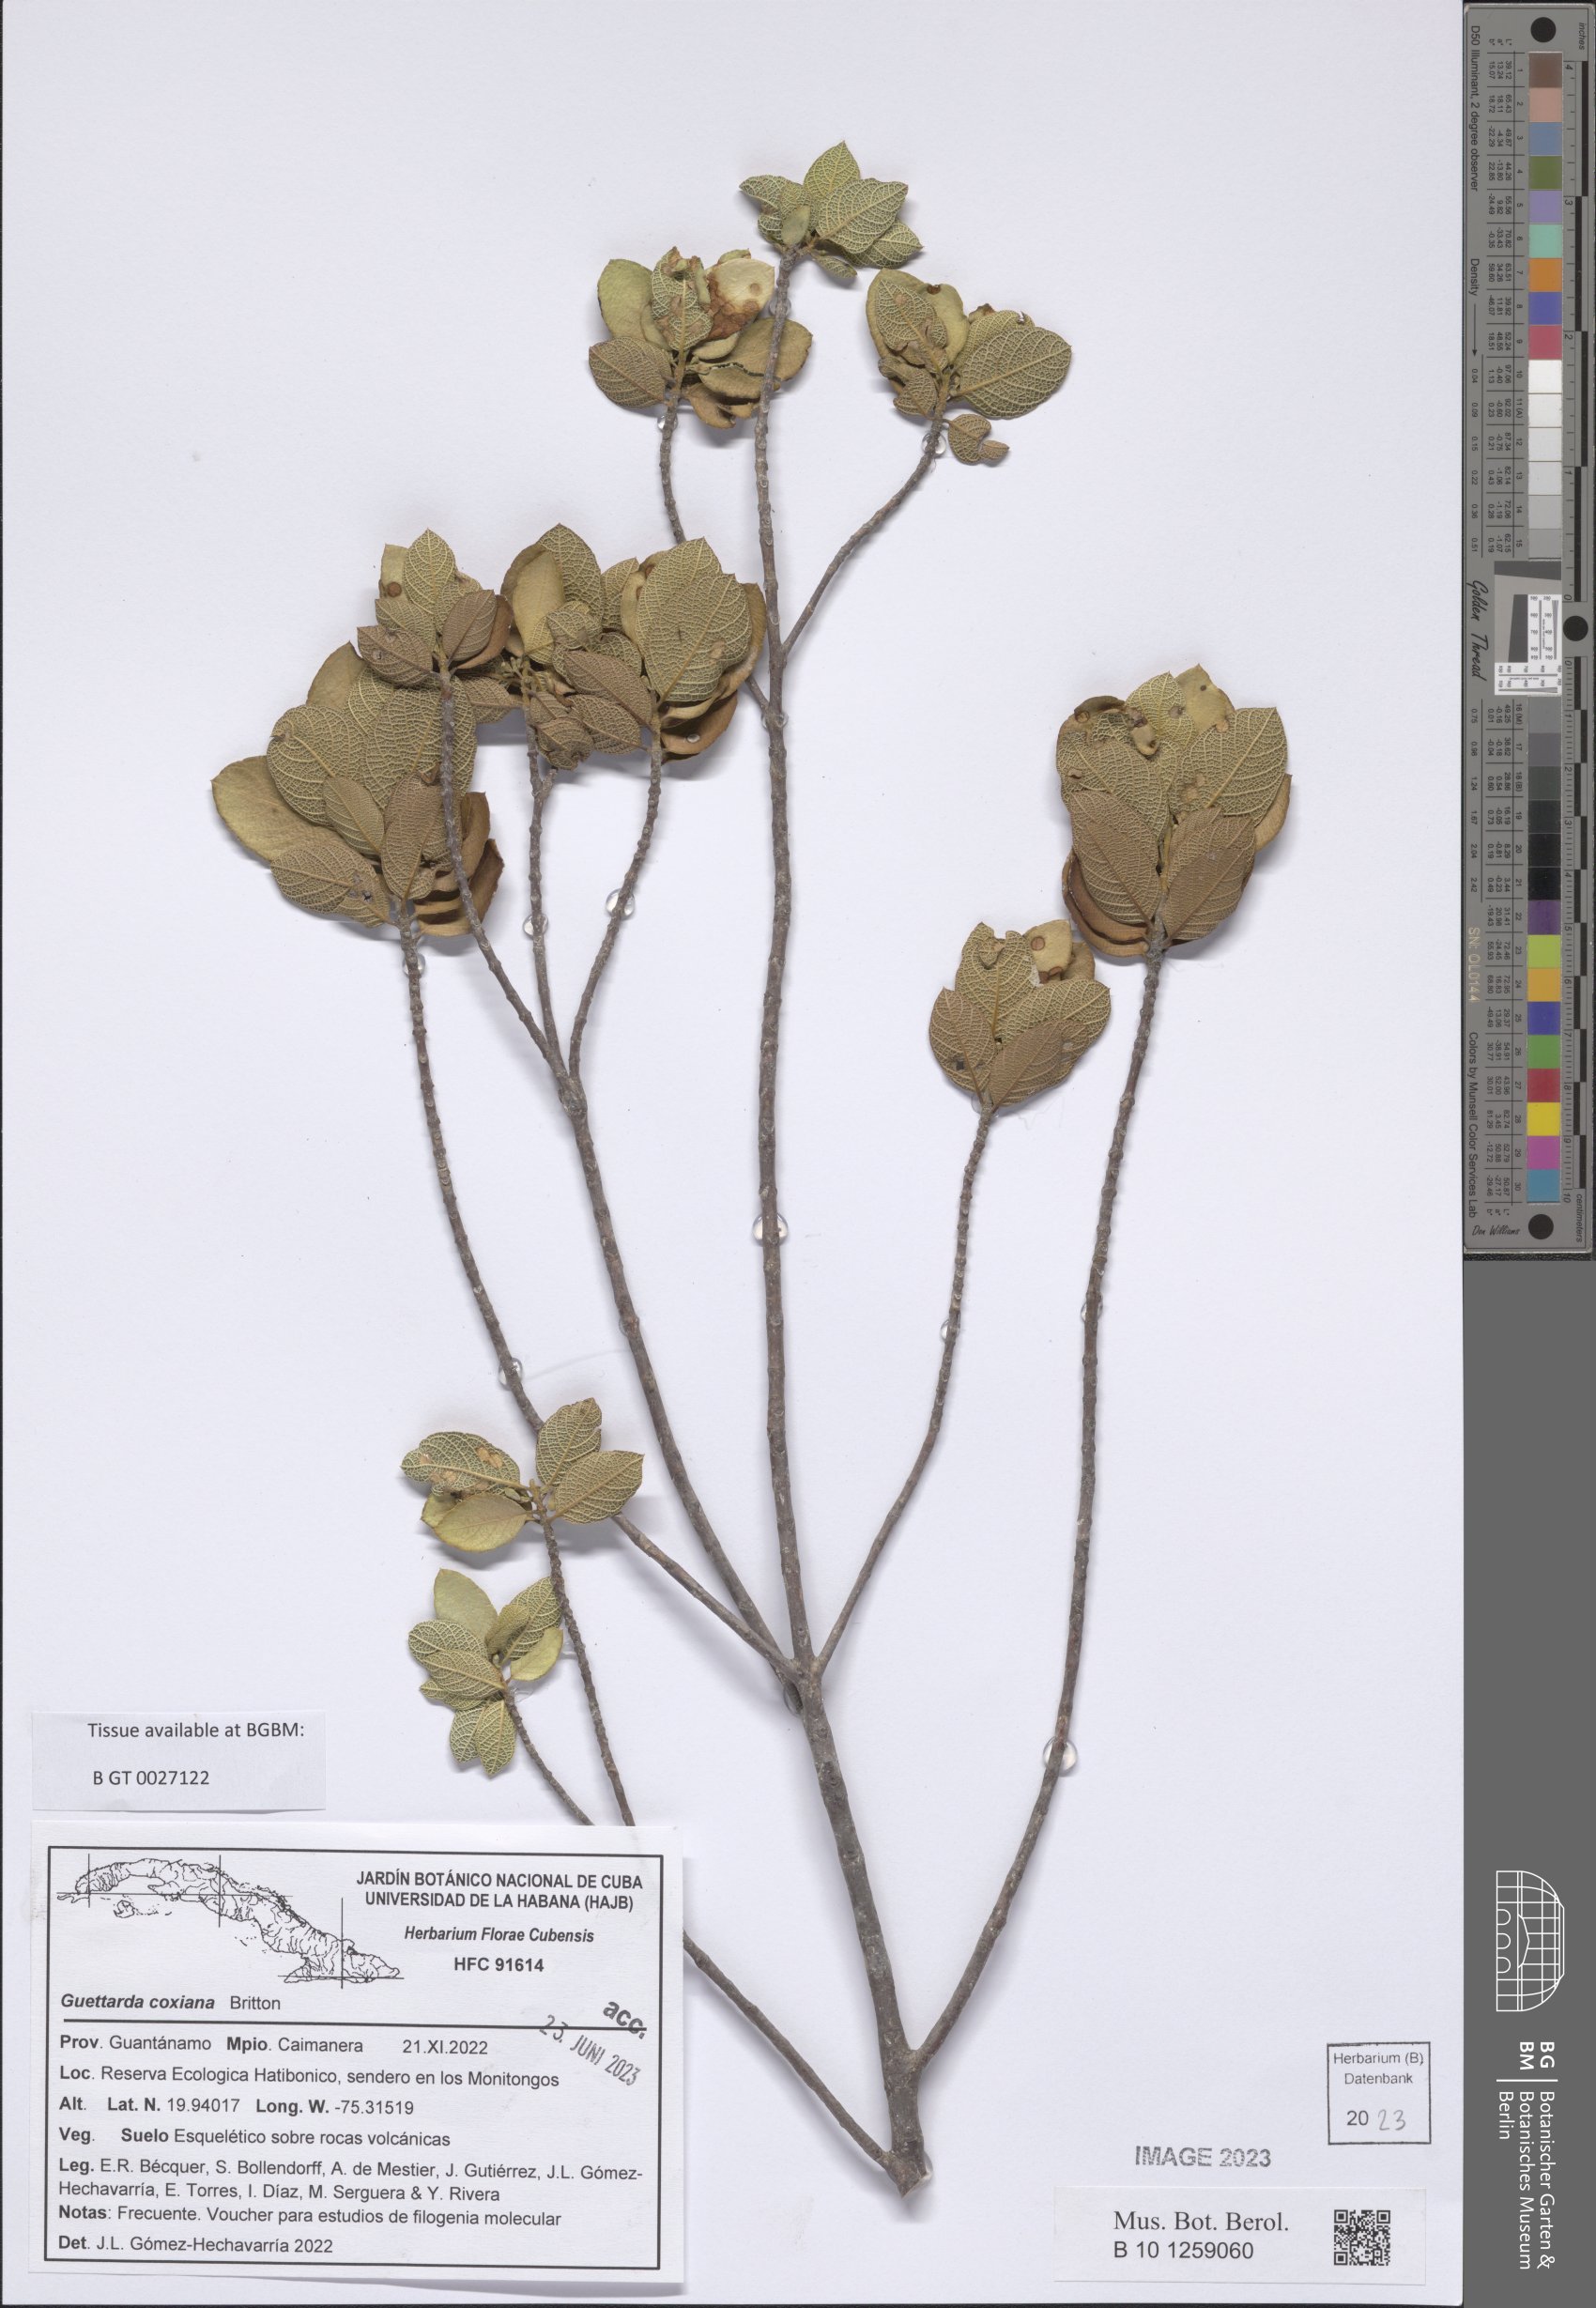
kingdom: Plantae
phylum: Tracheophyta
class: Magnoliopsida
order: Gentianales
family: Rubiaceae
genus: Guettarda
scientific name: Guettarda coxiana
